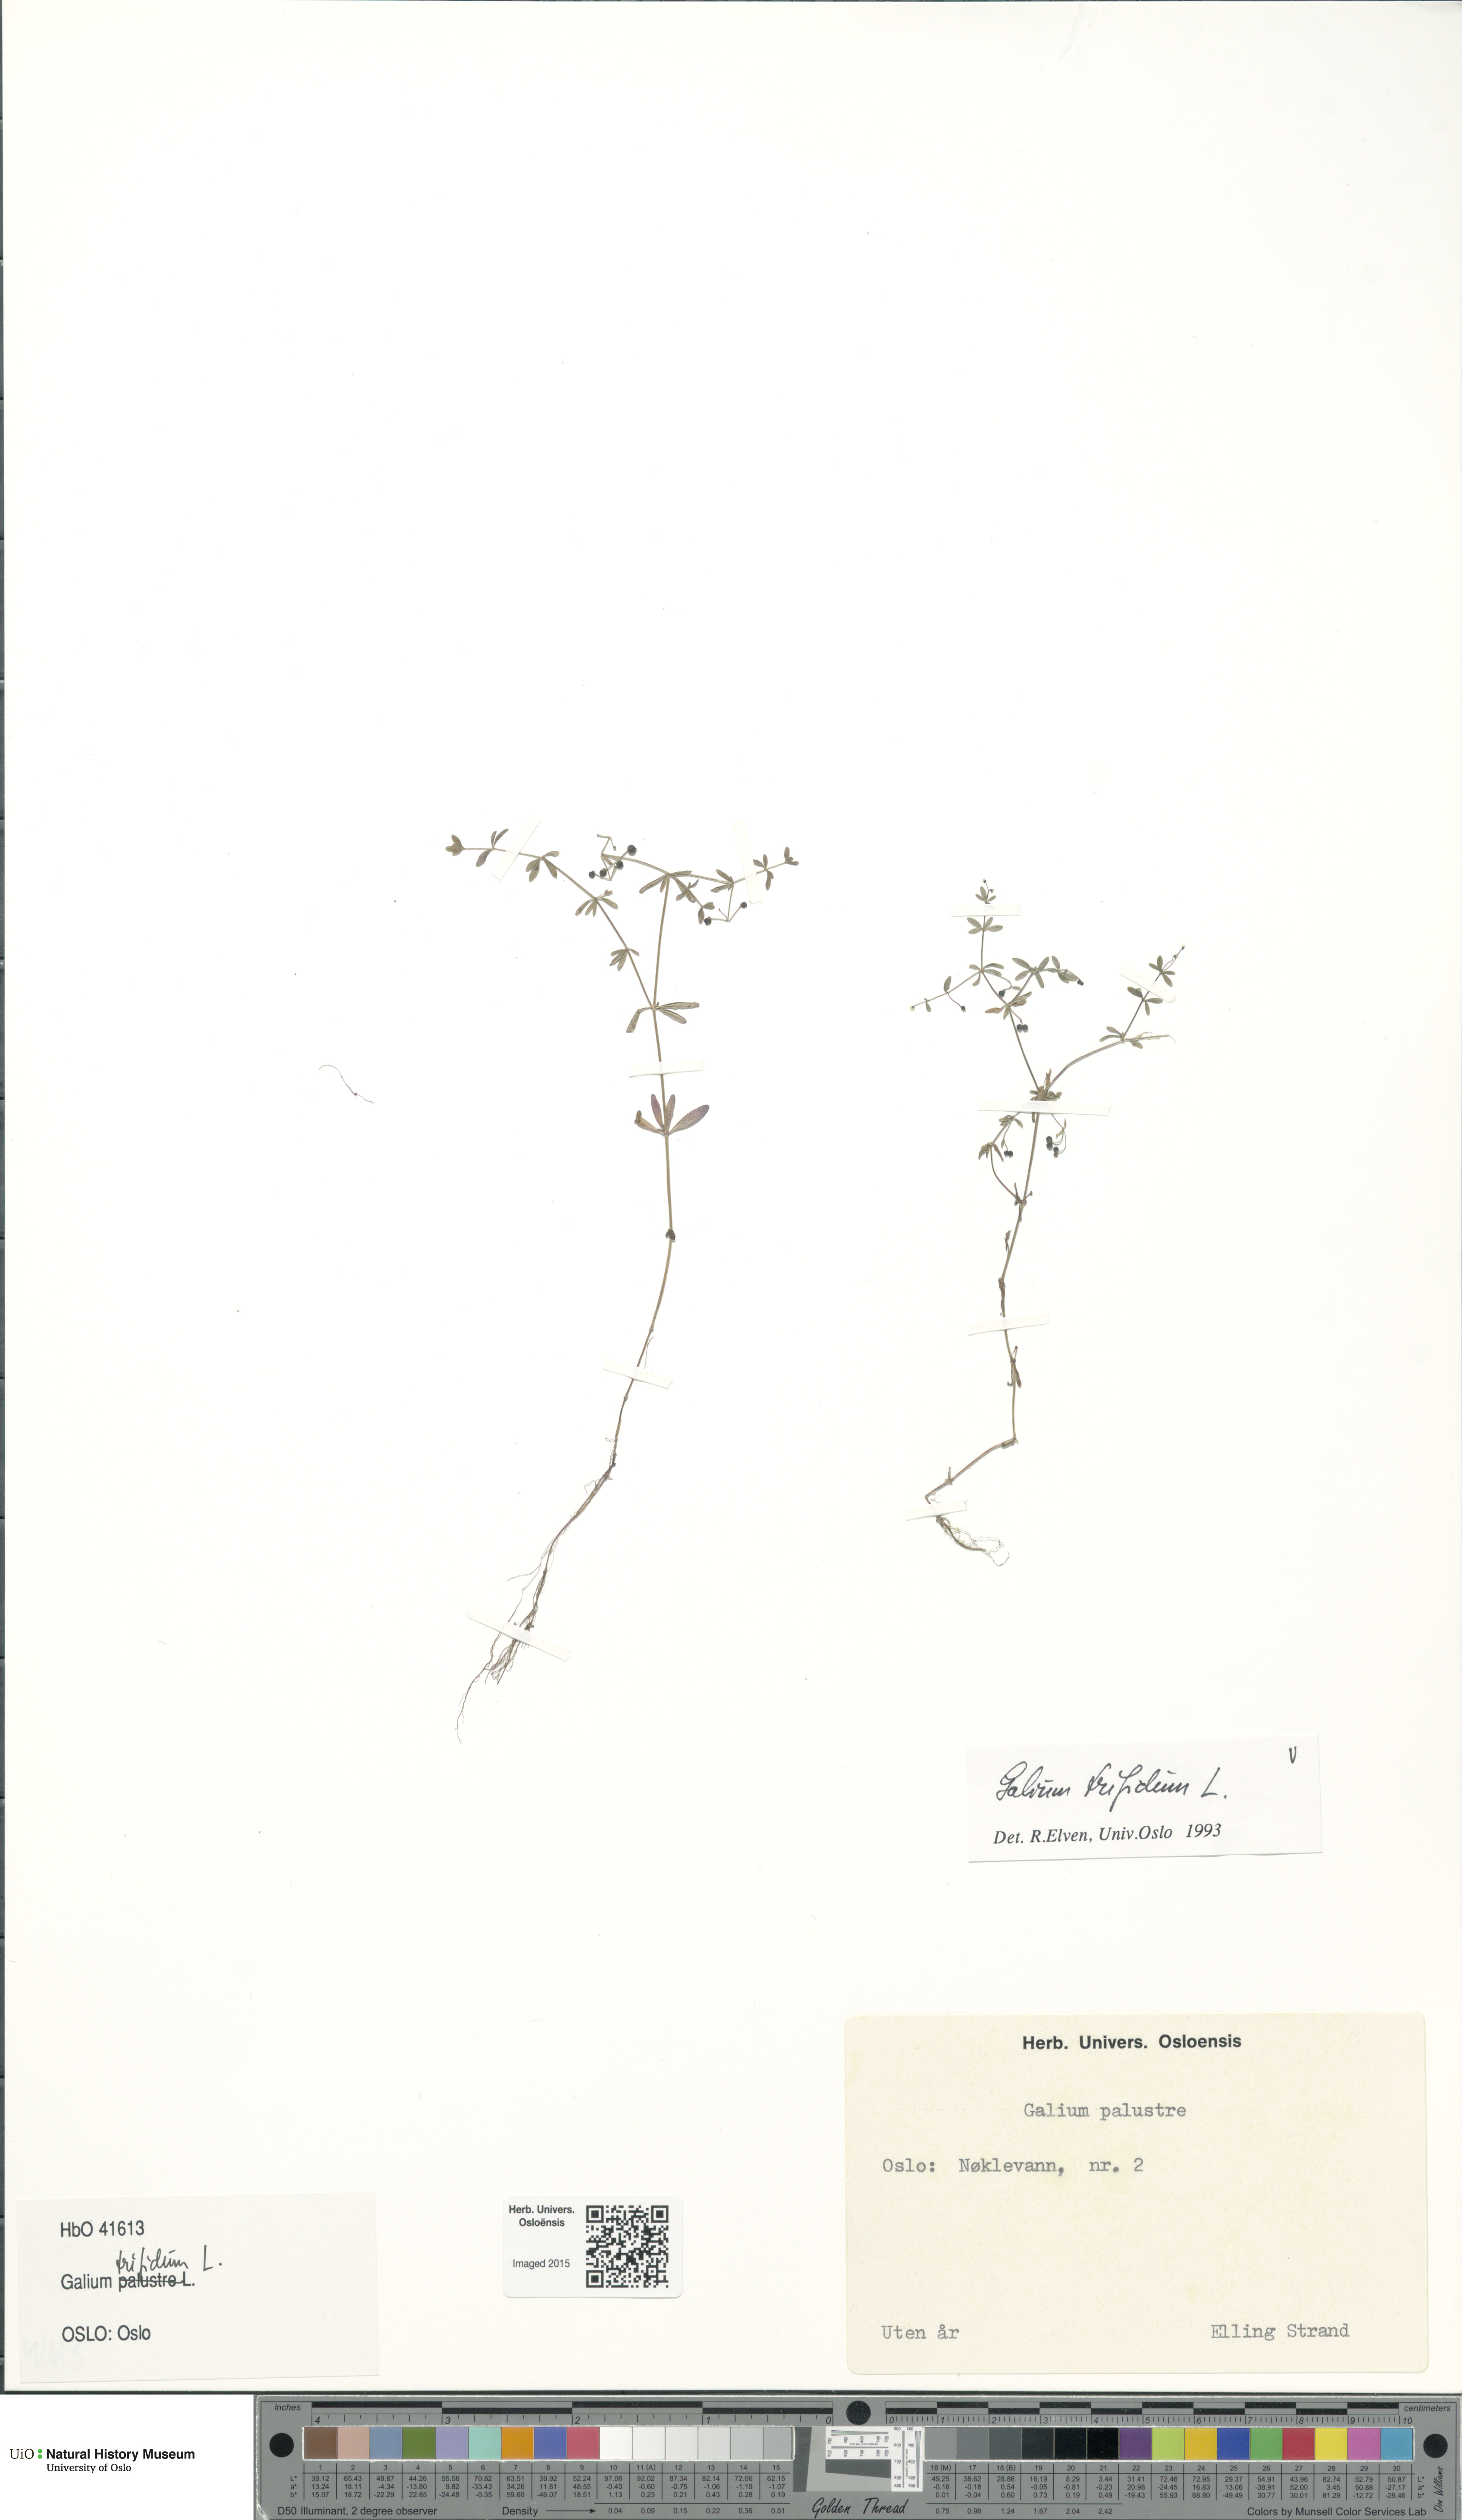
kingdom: Plantae
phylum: Tracheophyta
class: Magnoliopsida
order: Gentianales
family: Rubiaceae
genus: Galium
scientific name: Galium trifidum
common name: Small bedstraw
